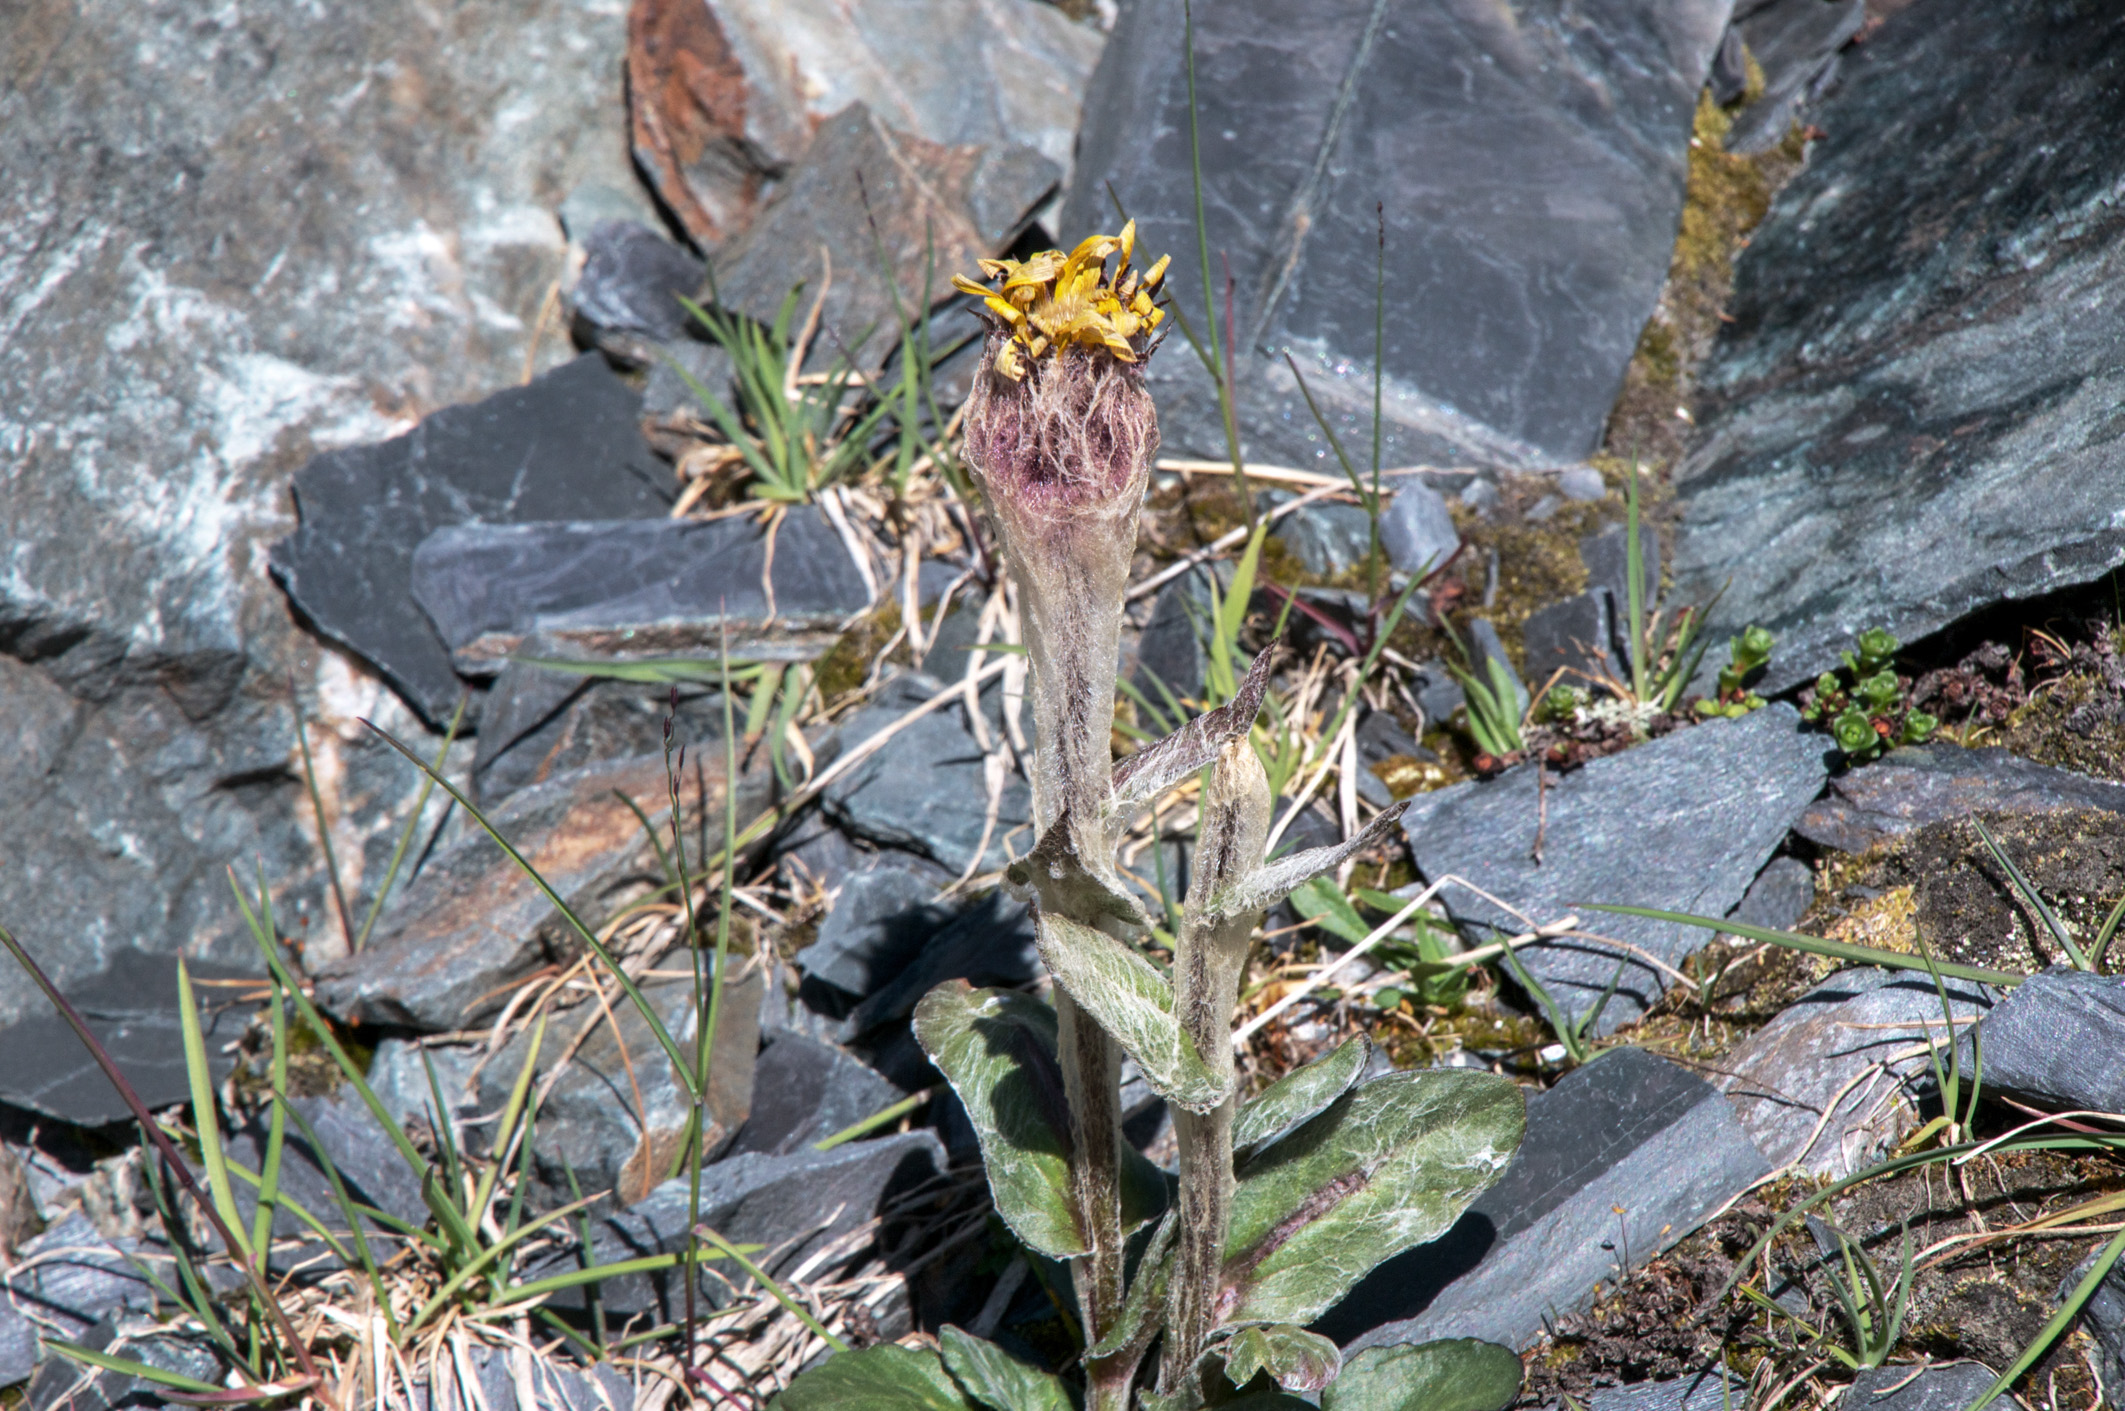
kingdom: Plantae
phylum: Tracheophyta
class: Magnoliopsida
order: Asterales
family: Asteraceae
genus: Tephroseris
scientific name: Tephroseris turczaninovii
